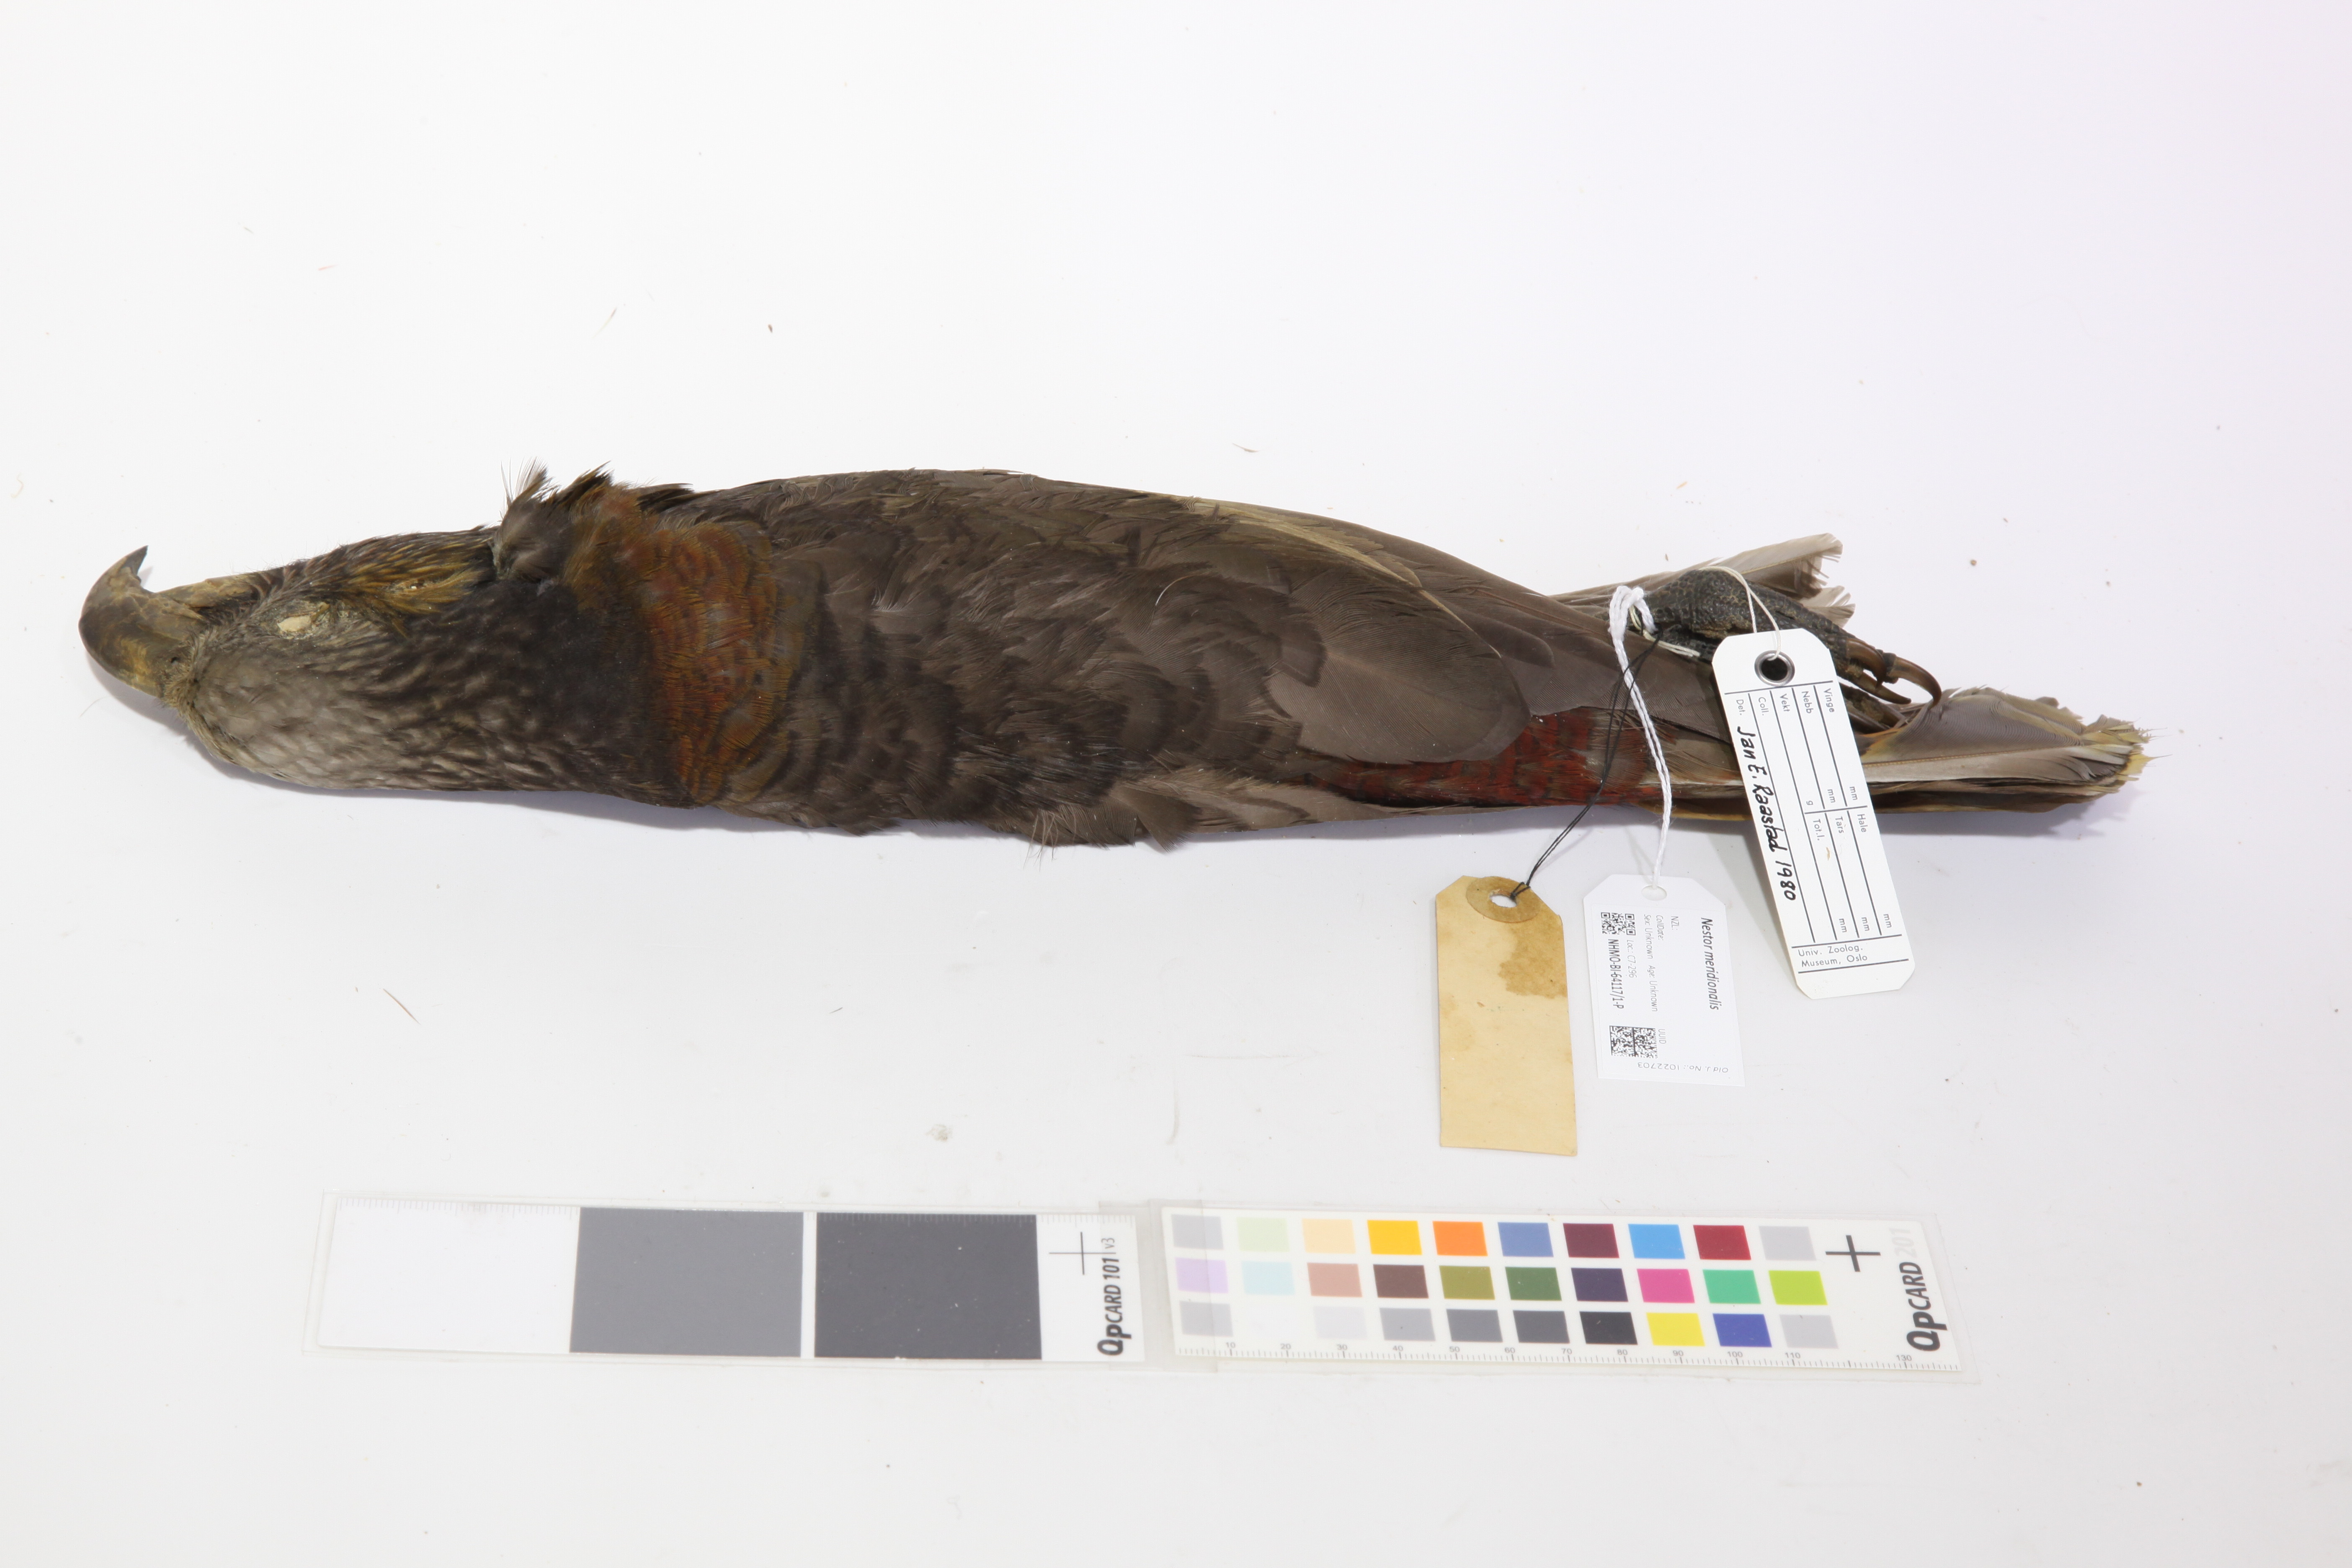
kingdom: Animalia
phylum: Chordata
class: Aves
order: Psittaciformes
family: Psittacidae
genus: Nestor
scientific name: Nestor meridionalis
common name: New zealand kaka
